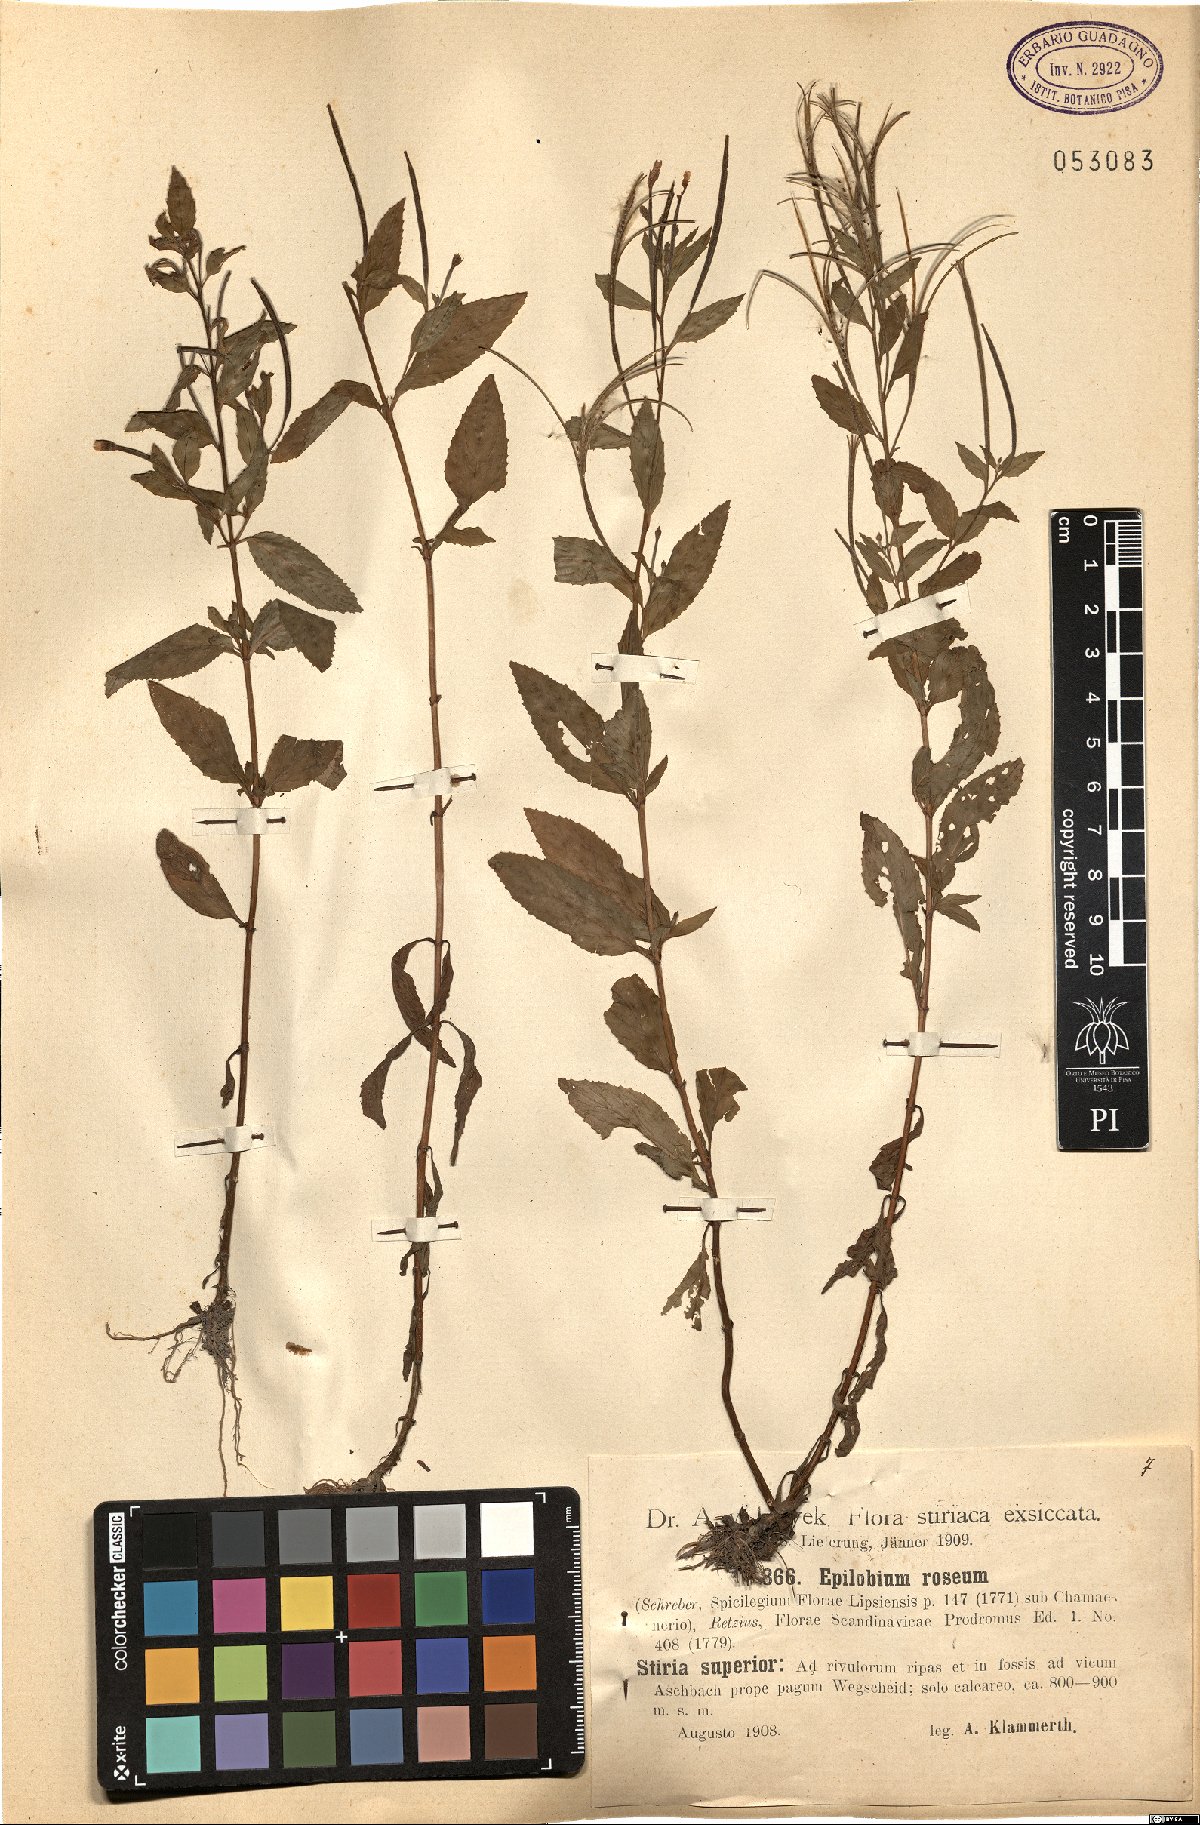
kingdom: Plantae
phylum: Tracheophyta
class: Magnoliopsida
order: Myrtales
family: Onagraceae
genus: Epilobium
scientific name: Epilobium roseum
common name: Pale willowherb
